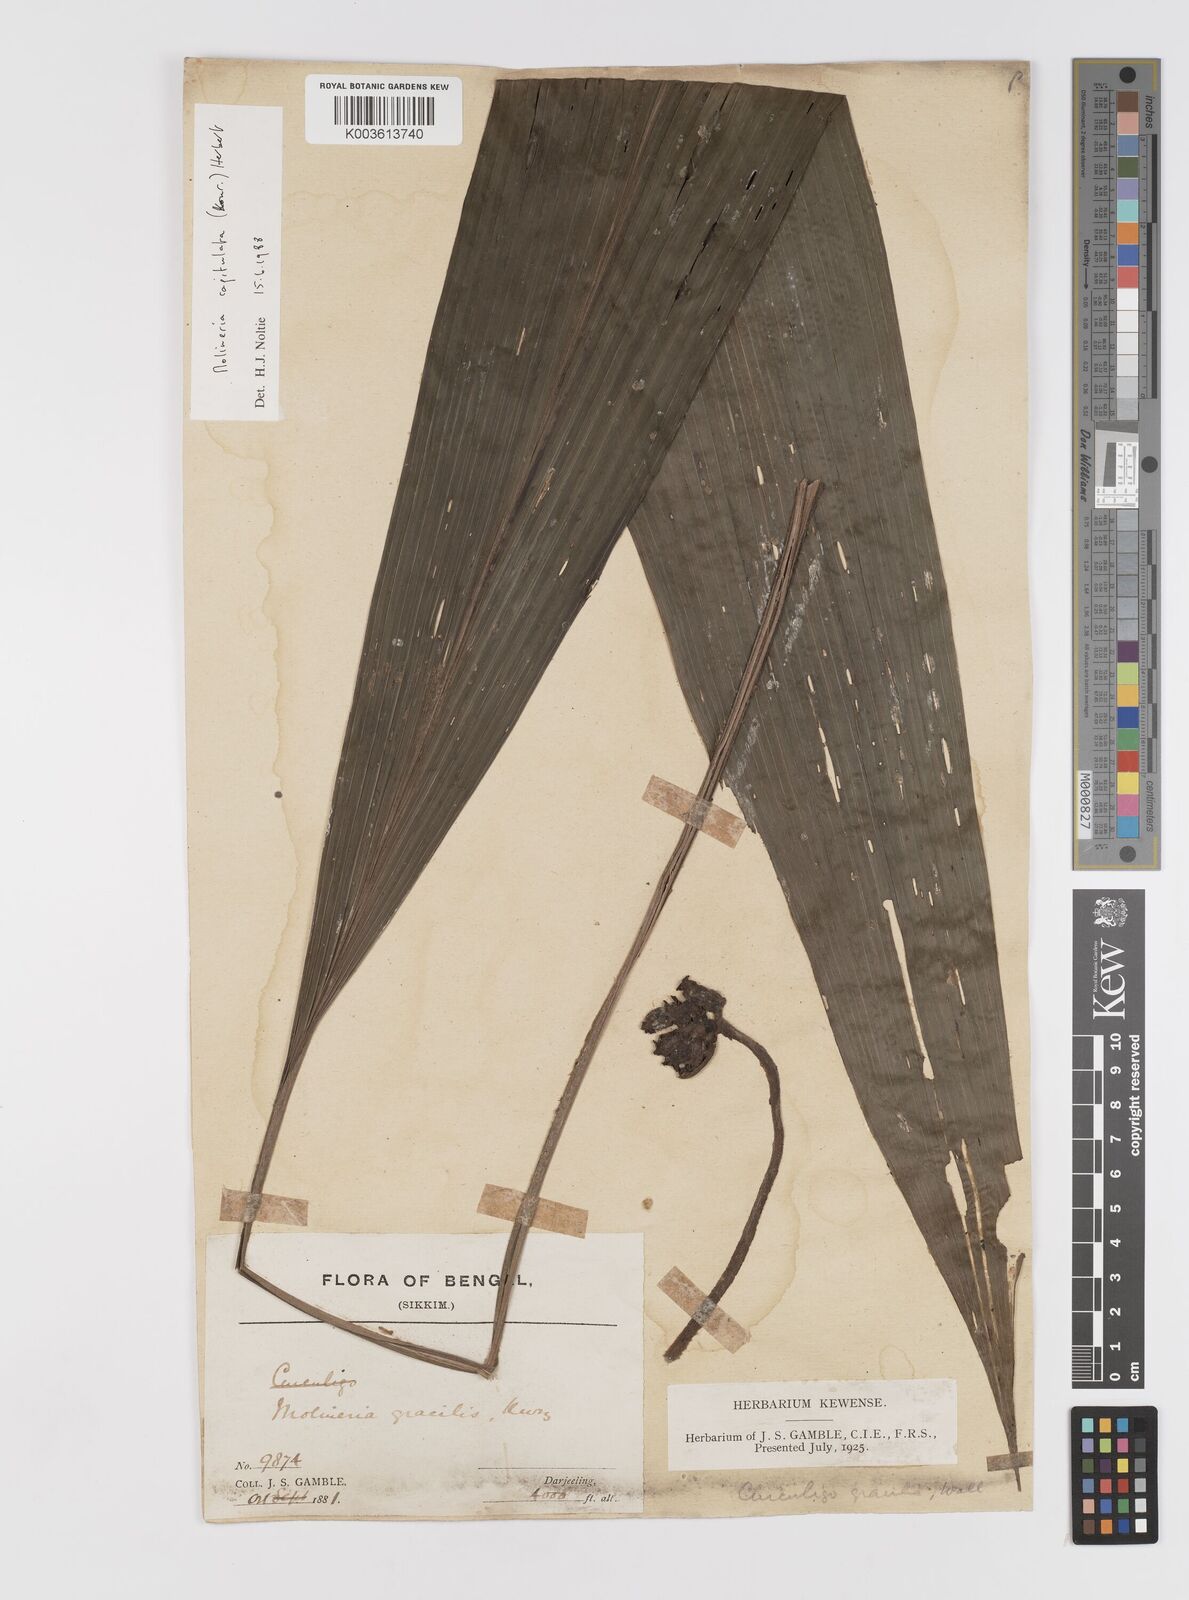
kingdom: Plantae
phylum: Tracheophyta
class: Liliopsida
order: Asparagales
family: Hypoxidaceae
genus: Curculigo
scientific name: Curculigo capitulata
